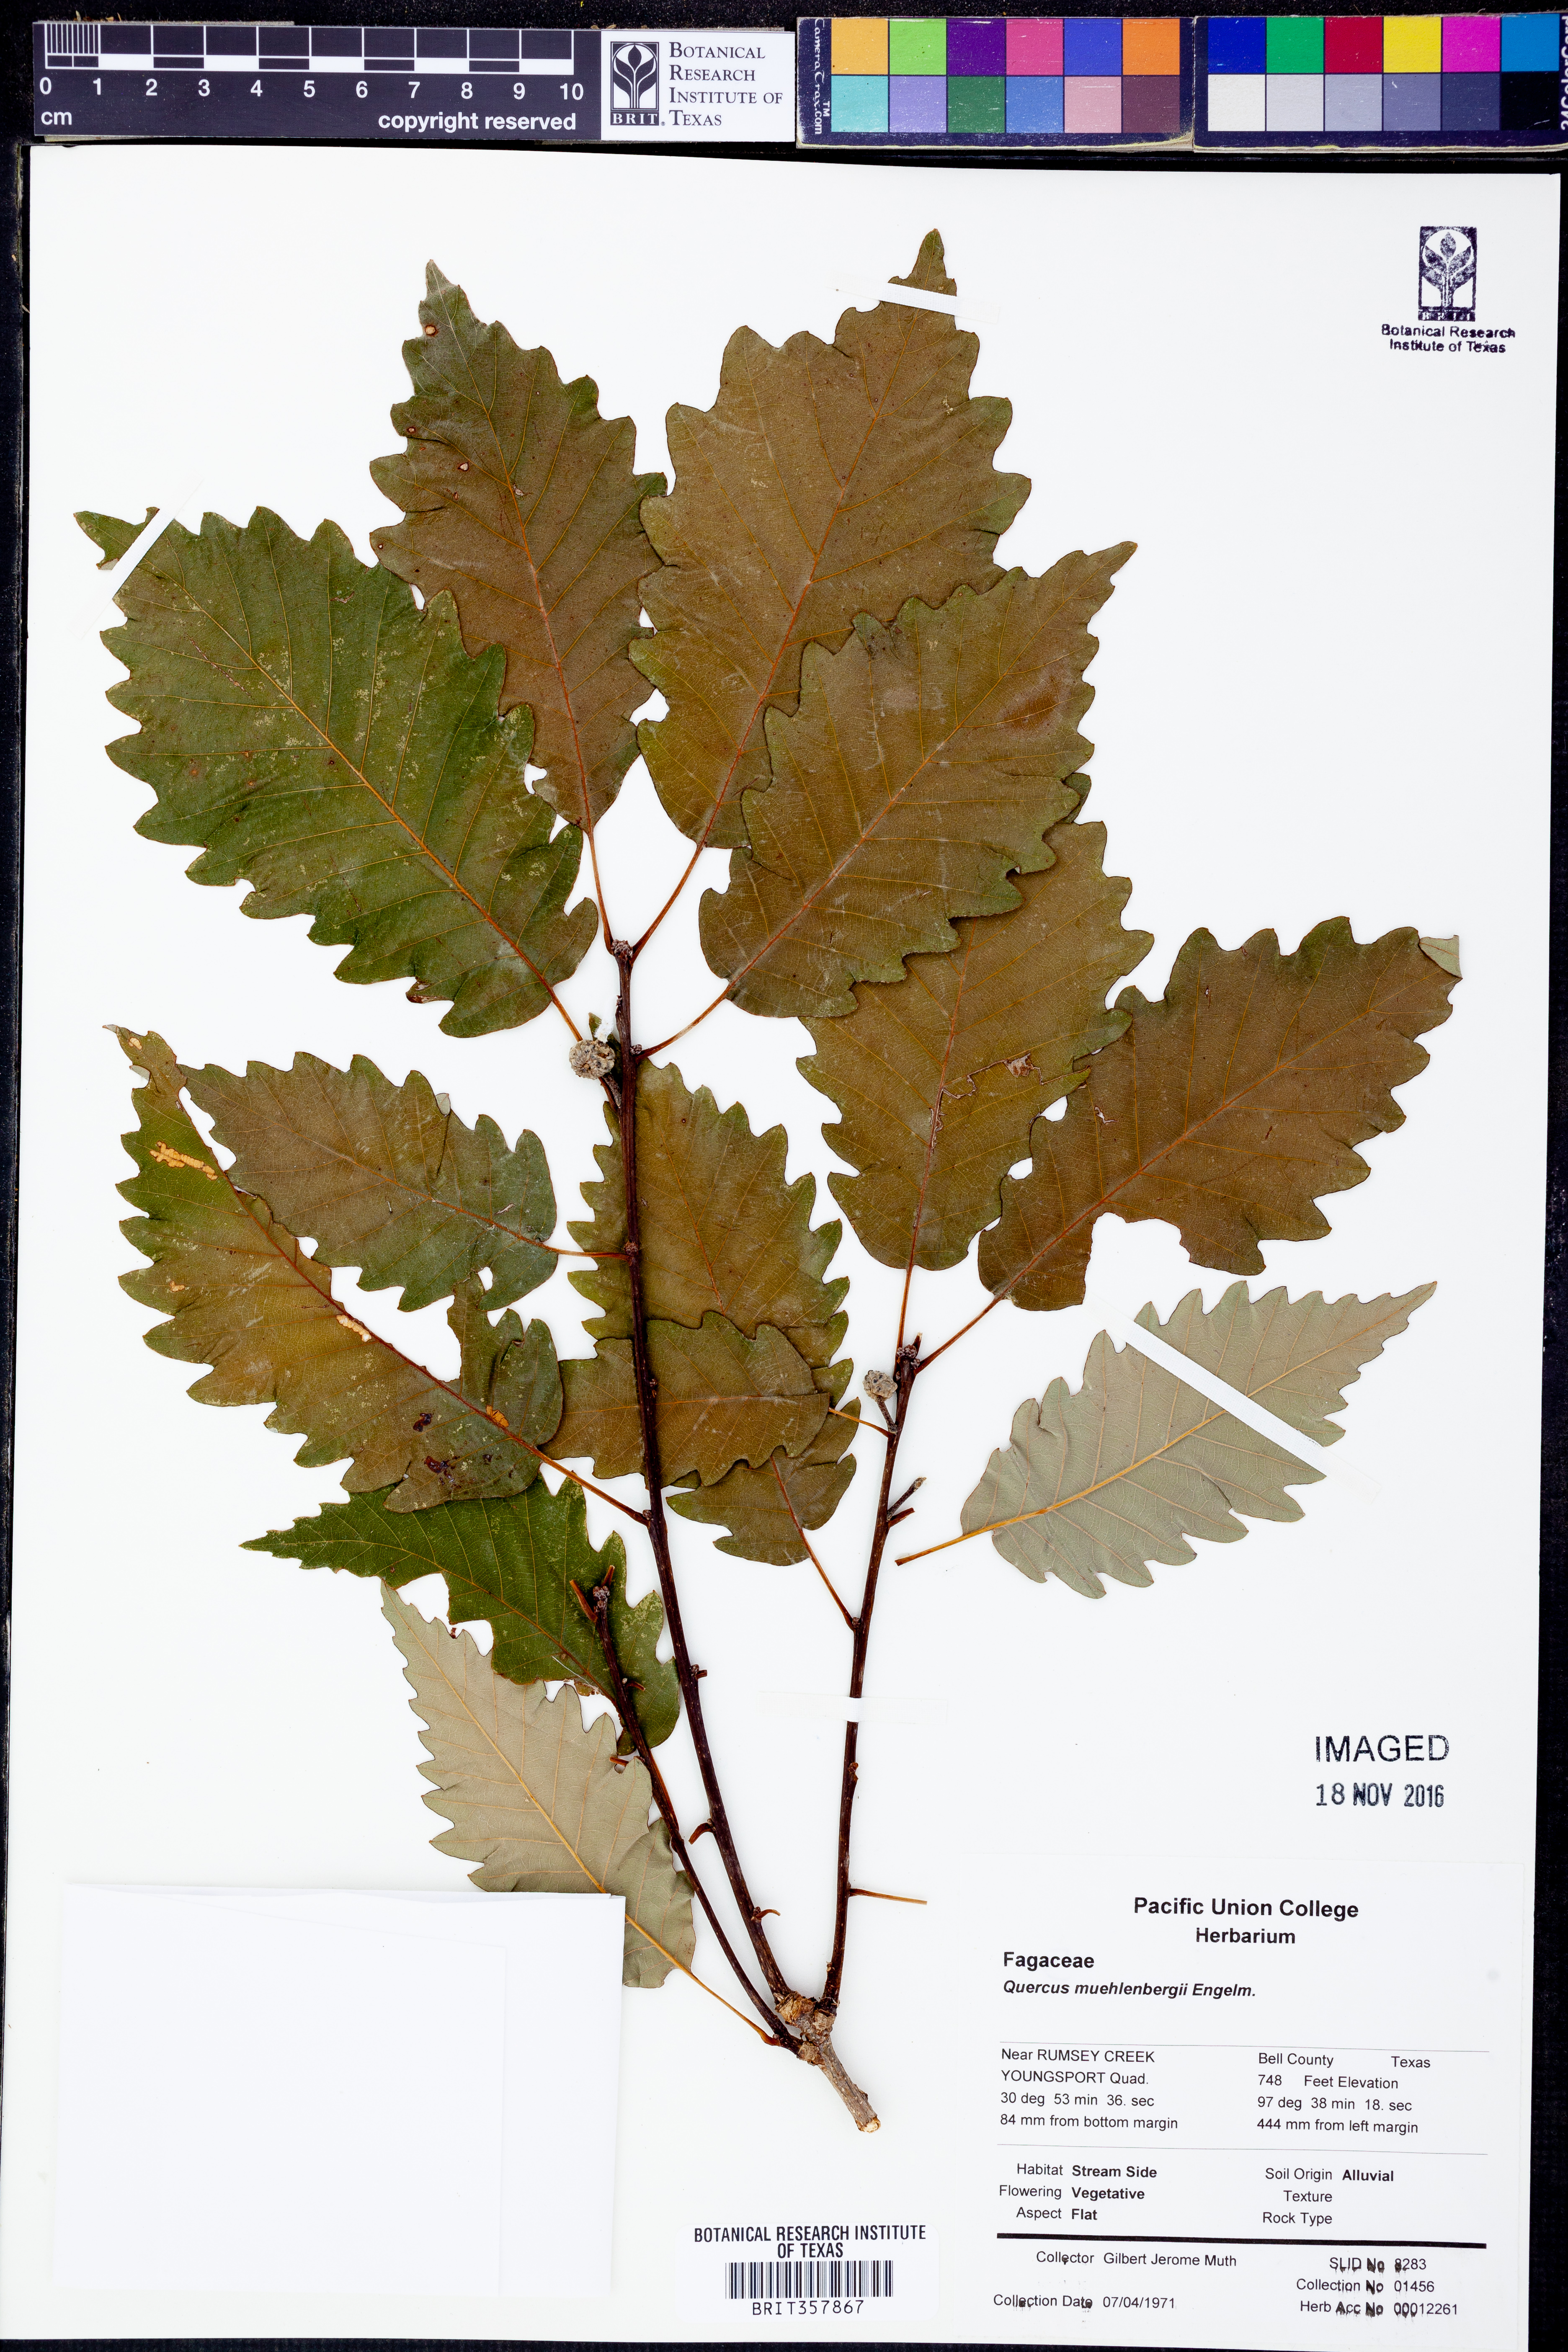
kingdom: Plantae
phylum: Tracheophyta
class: Magnoliopsida
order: Fagales
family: Fagaceae
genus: Quercus
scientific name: Quercus muehlenbergii
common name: Chinkapin oak
